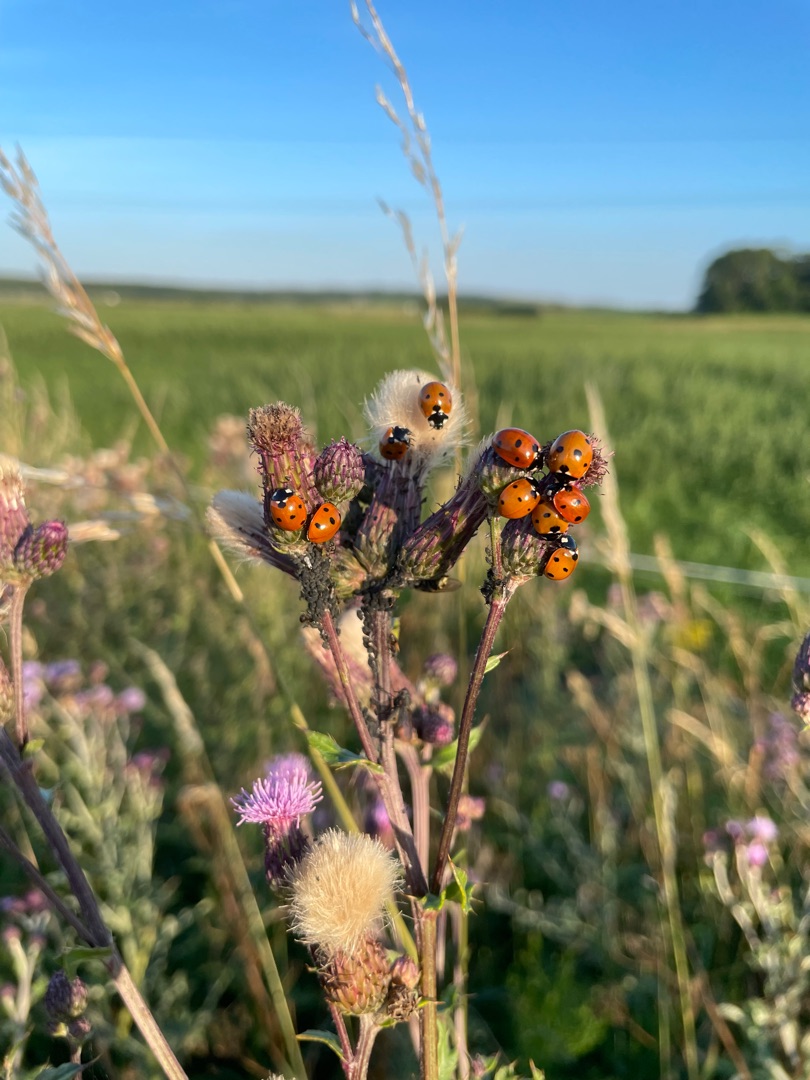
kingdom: Animalia
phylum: Arthropoda
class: Insecta
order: Coleoptera
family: Coccinellidae
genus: Coccinella
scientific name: Coccinella septempunctata
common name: Syvplettet mariehøne
